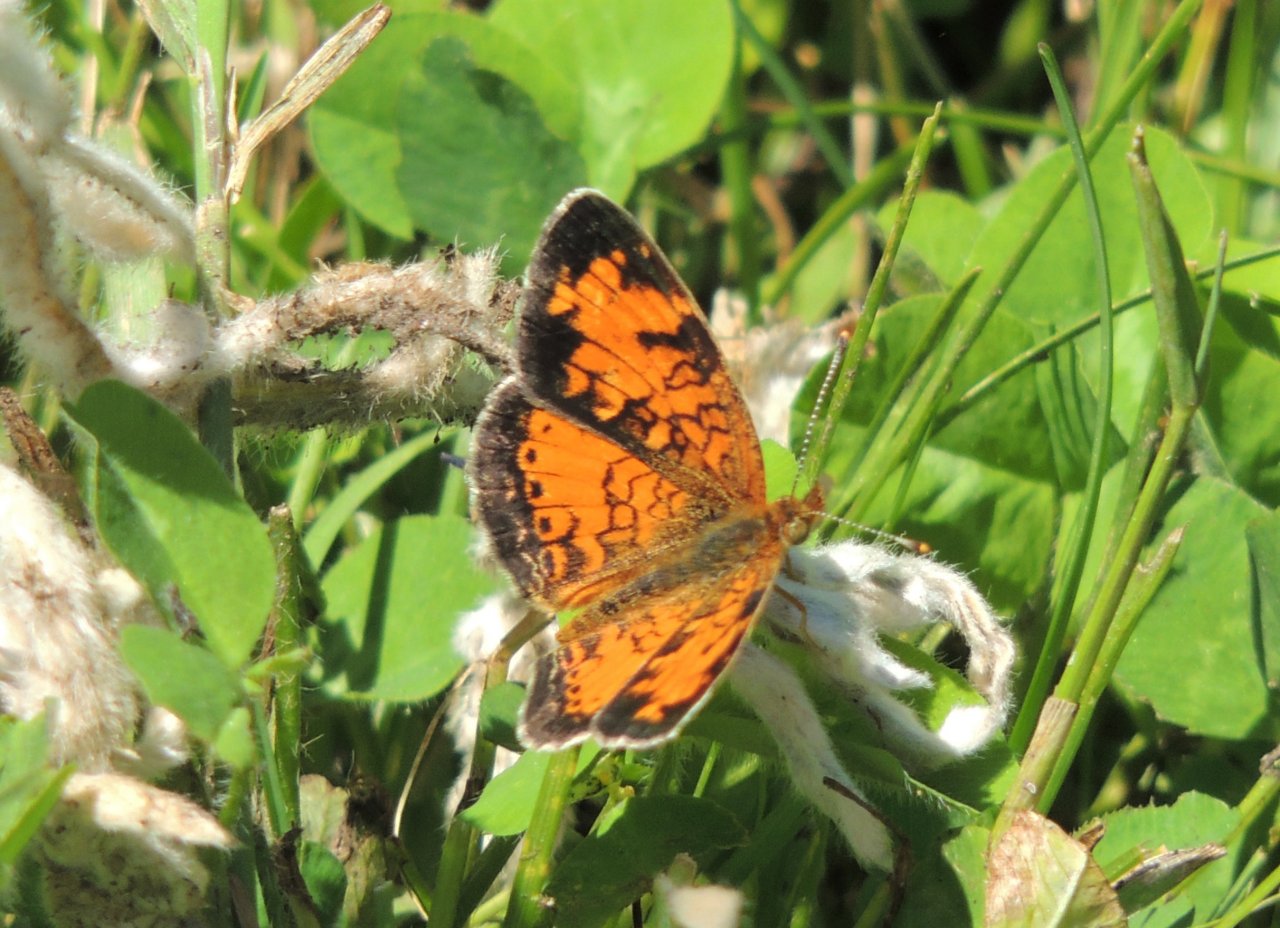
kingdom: Animalia
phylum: Arthropoda
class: Insecta
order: Lepidoptera
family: Nymphalidae
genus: Phyciodes
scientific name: Phyciodes tharos
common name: Northern Crescent
